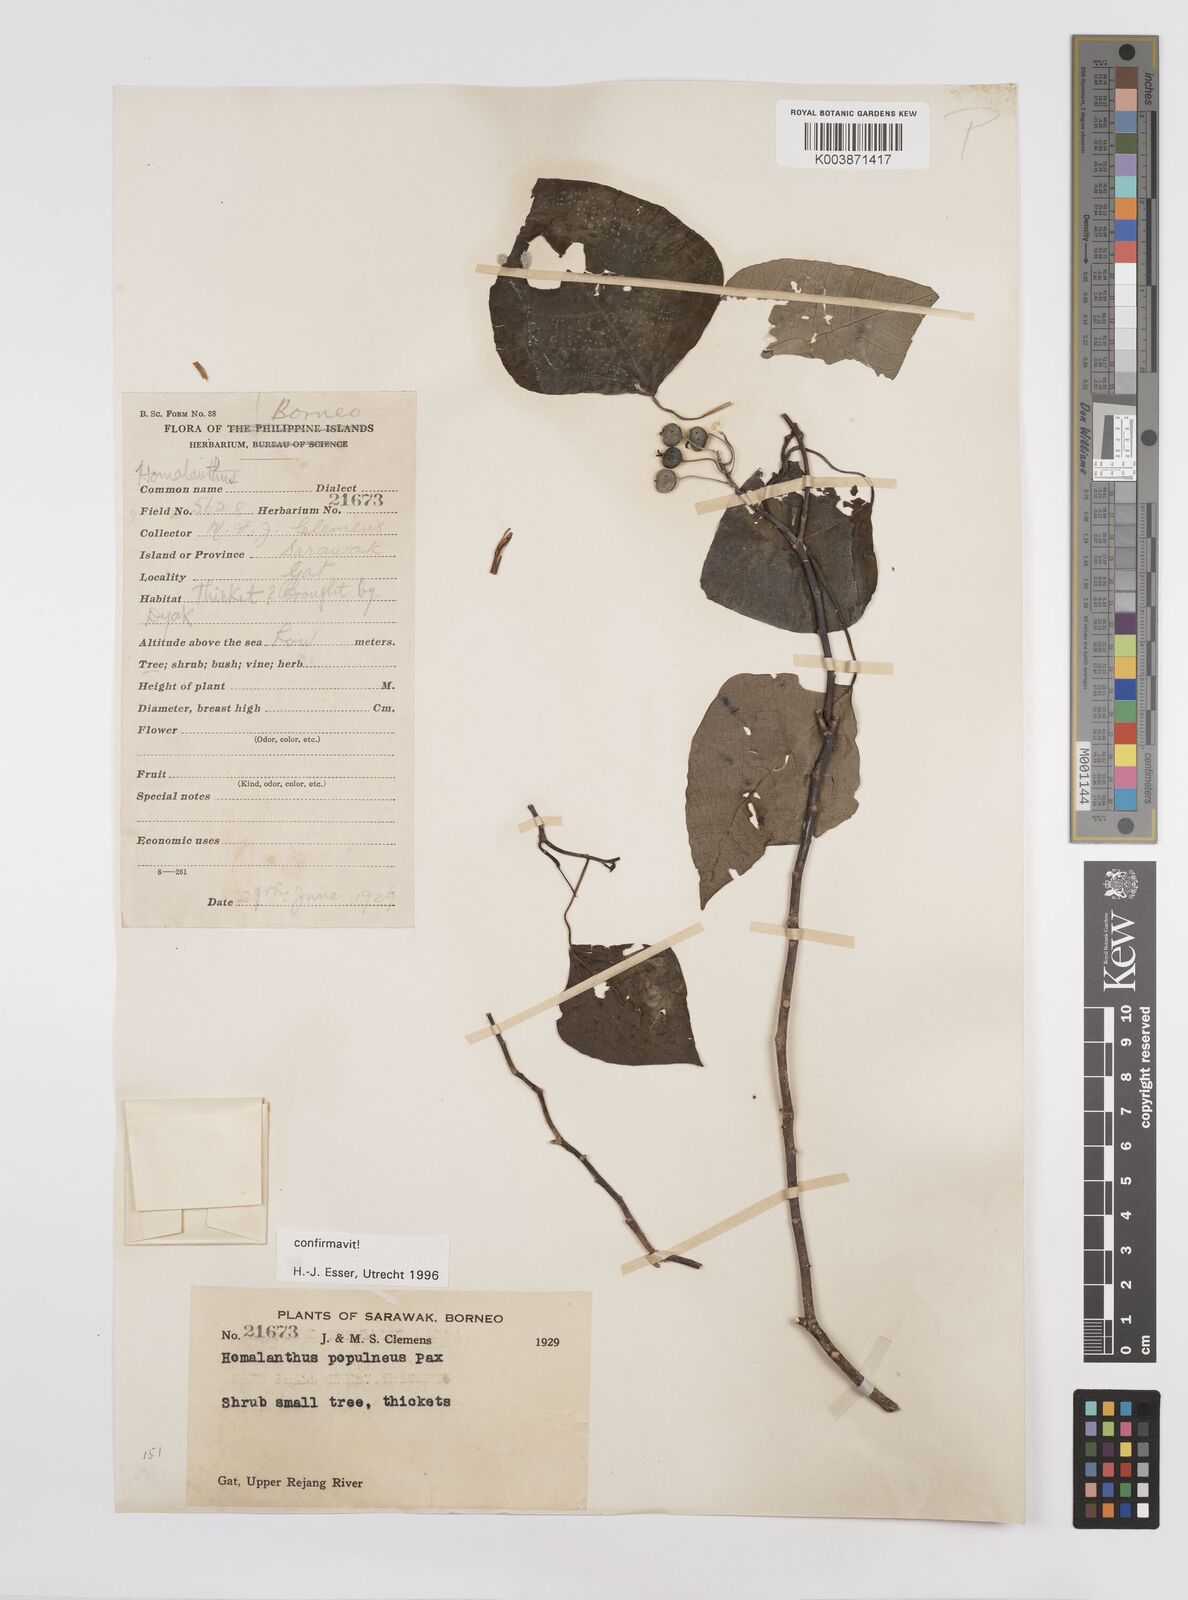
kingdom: Plantae
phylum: Tracheophyta
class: Magnoliopsida
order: Malpighiales
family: Euphorbiaceae
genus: Homalanthus
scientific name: Homalanthus populneus
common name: Spurge
